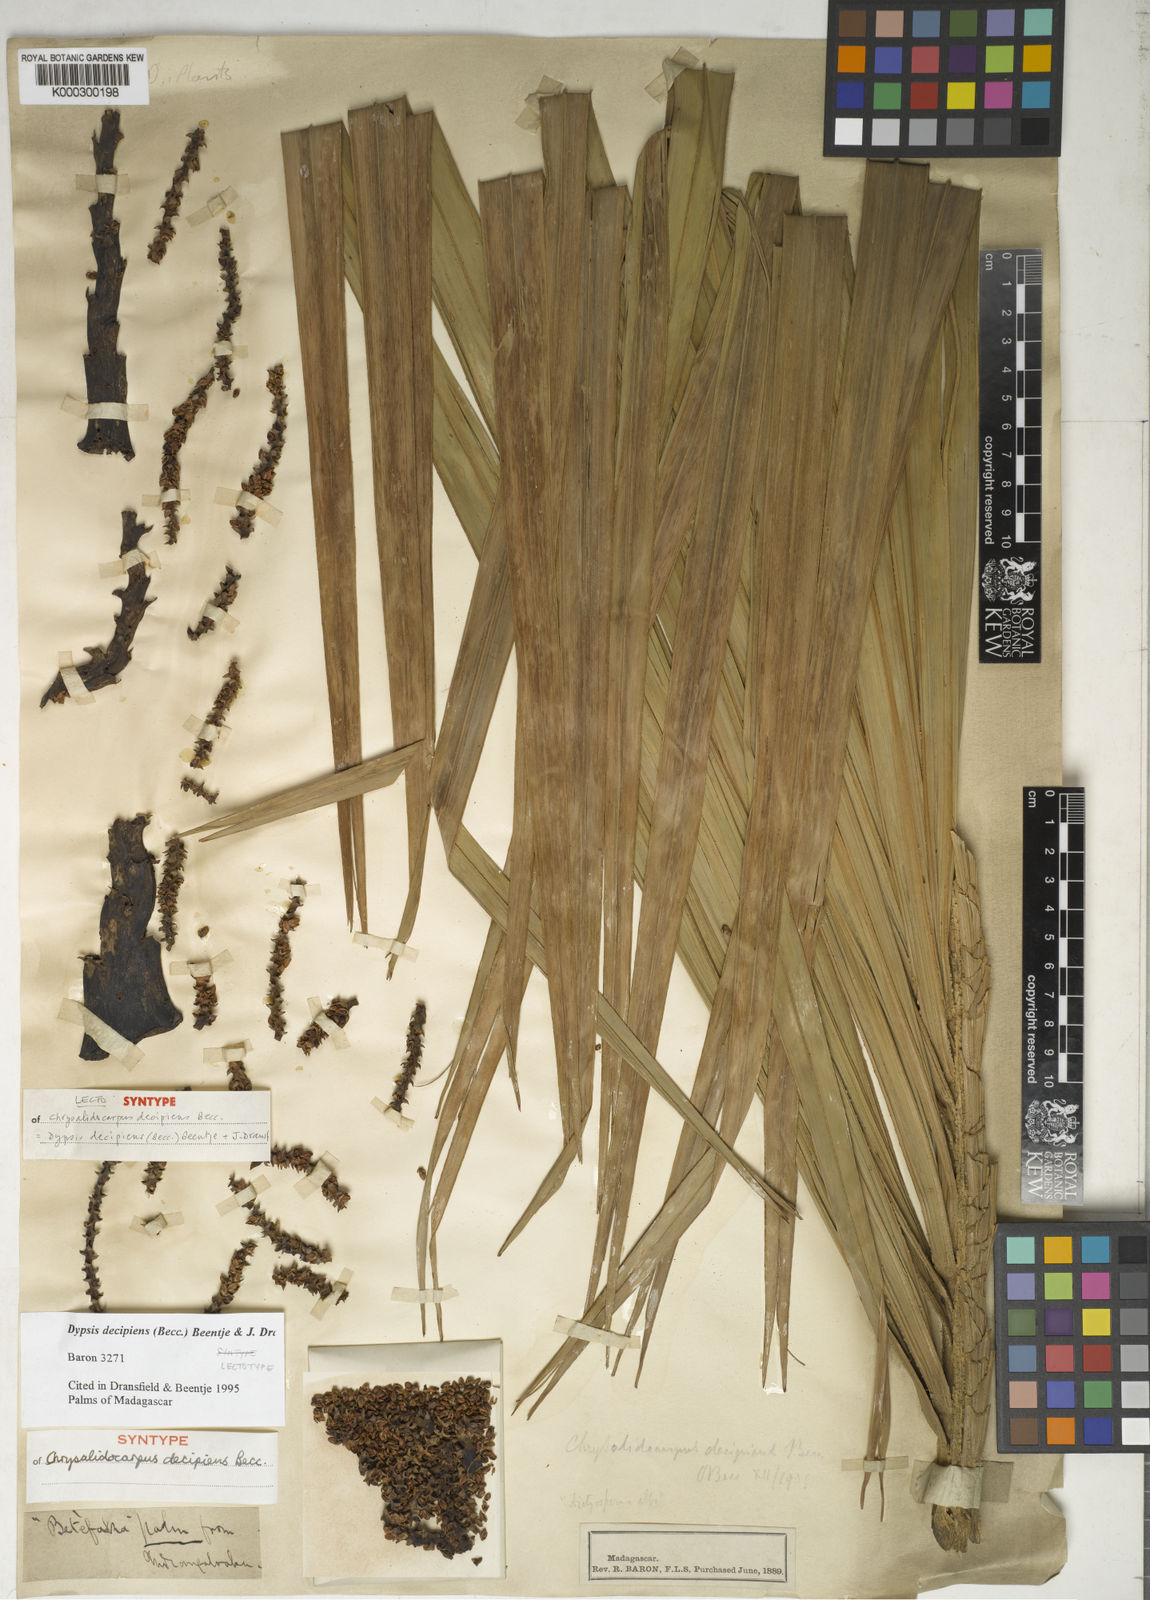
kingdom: Plantae
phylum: Tracheophyta
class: Liliopsida
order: Arecales
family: Arecaceae
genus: Dypsis
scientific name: Dypsis decipiens
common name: Manambe palm
